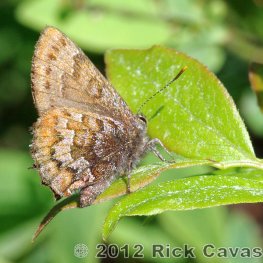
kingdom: Animalia
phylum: Arthropoda
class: Insecta
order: Lepidoptera
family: Lycaenidae
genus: Incisalia
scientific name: Incisalia niphon
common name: Eastern Pine Elfin
